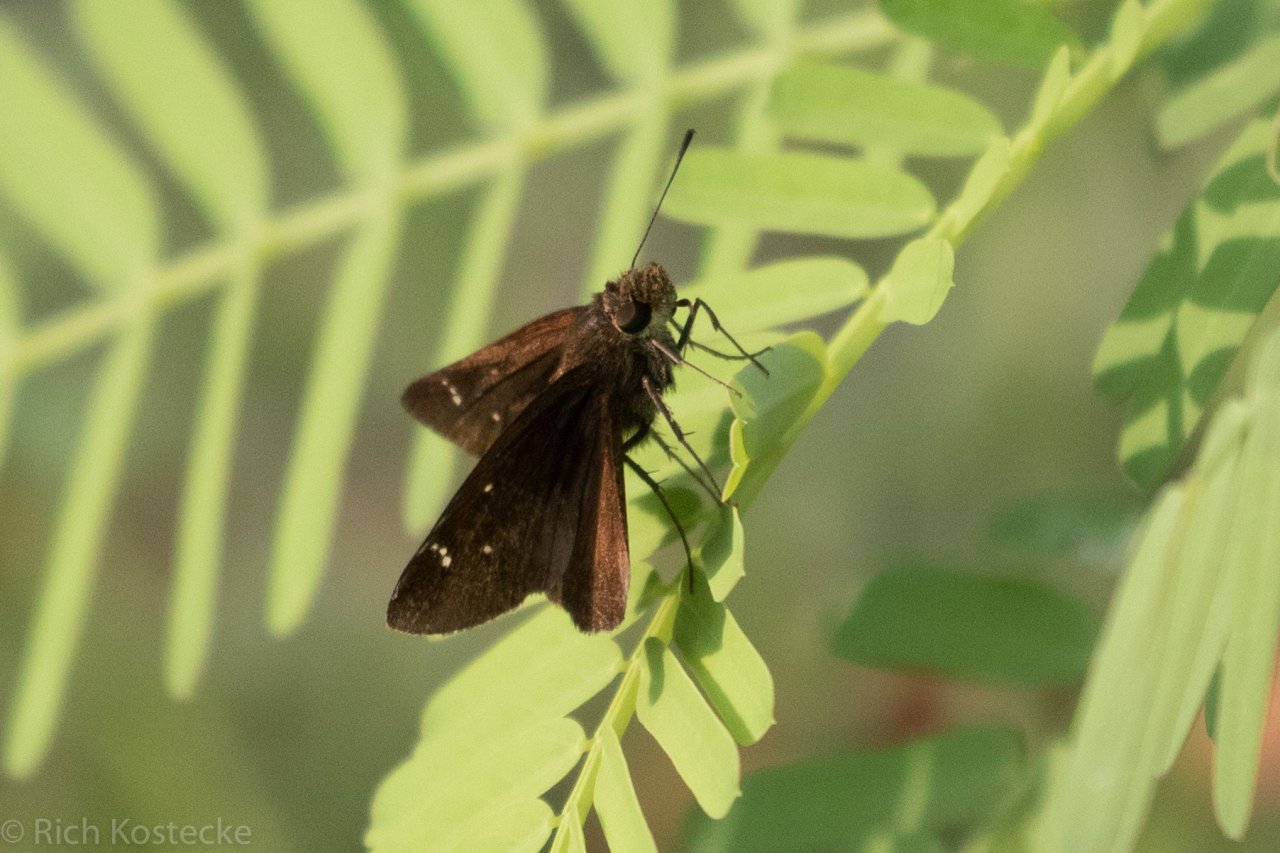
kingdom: Animalia
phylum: Arthropoda
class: Insecta
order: Lepidoptera
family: Hesperiidae
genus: Lerema
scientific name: Lerema accius
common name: Clouded Skipper
